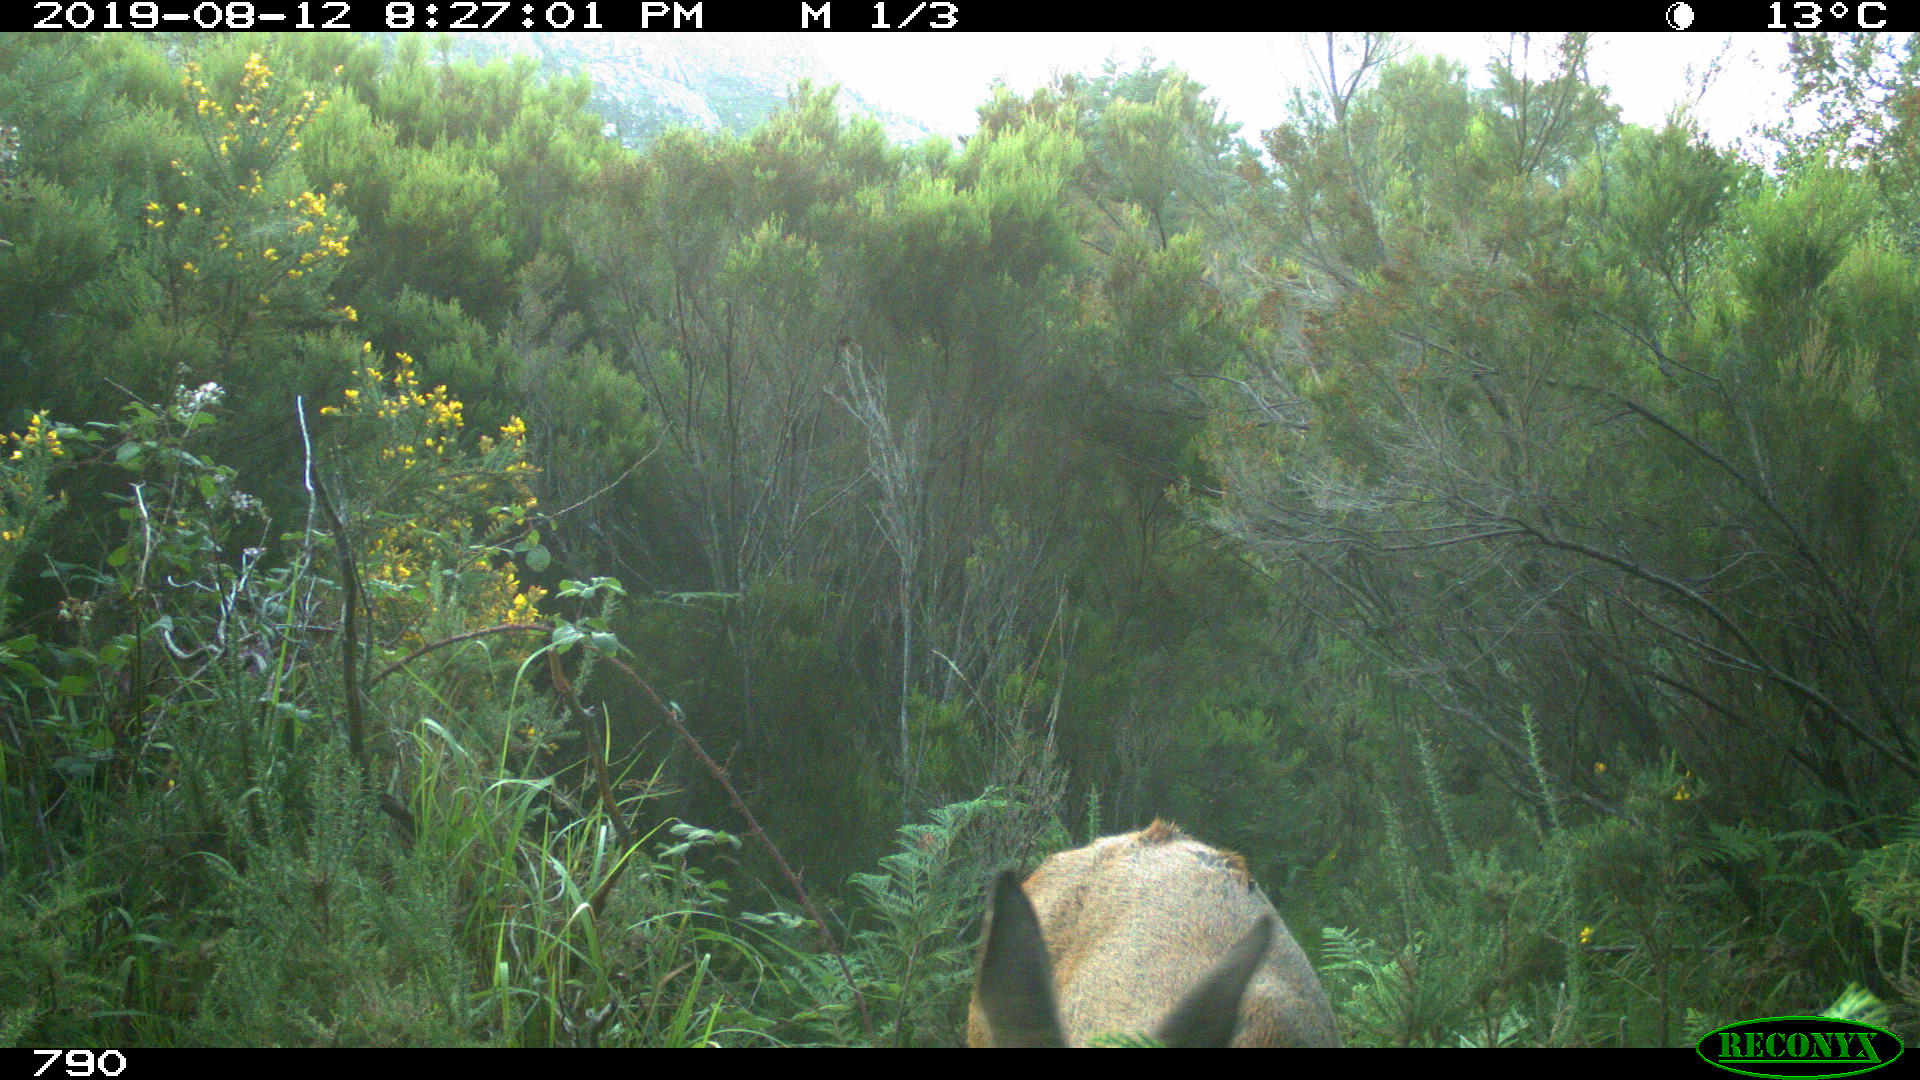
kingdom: Animalia
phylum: Chordata
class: Mammalia
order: Artiodactyla
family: Cervidae
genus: Capreolus
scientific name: Capreolus capreolus
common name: Western roe deer
